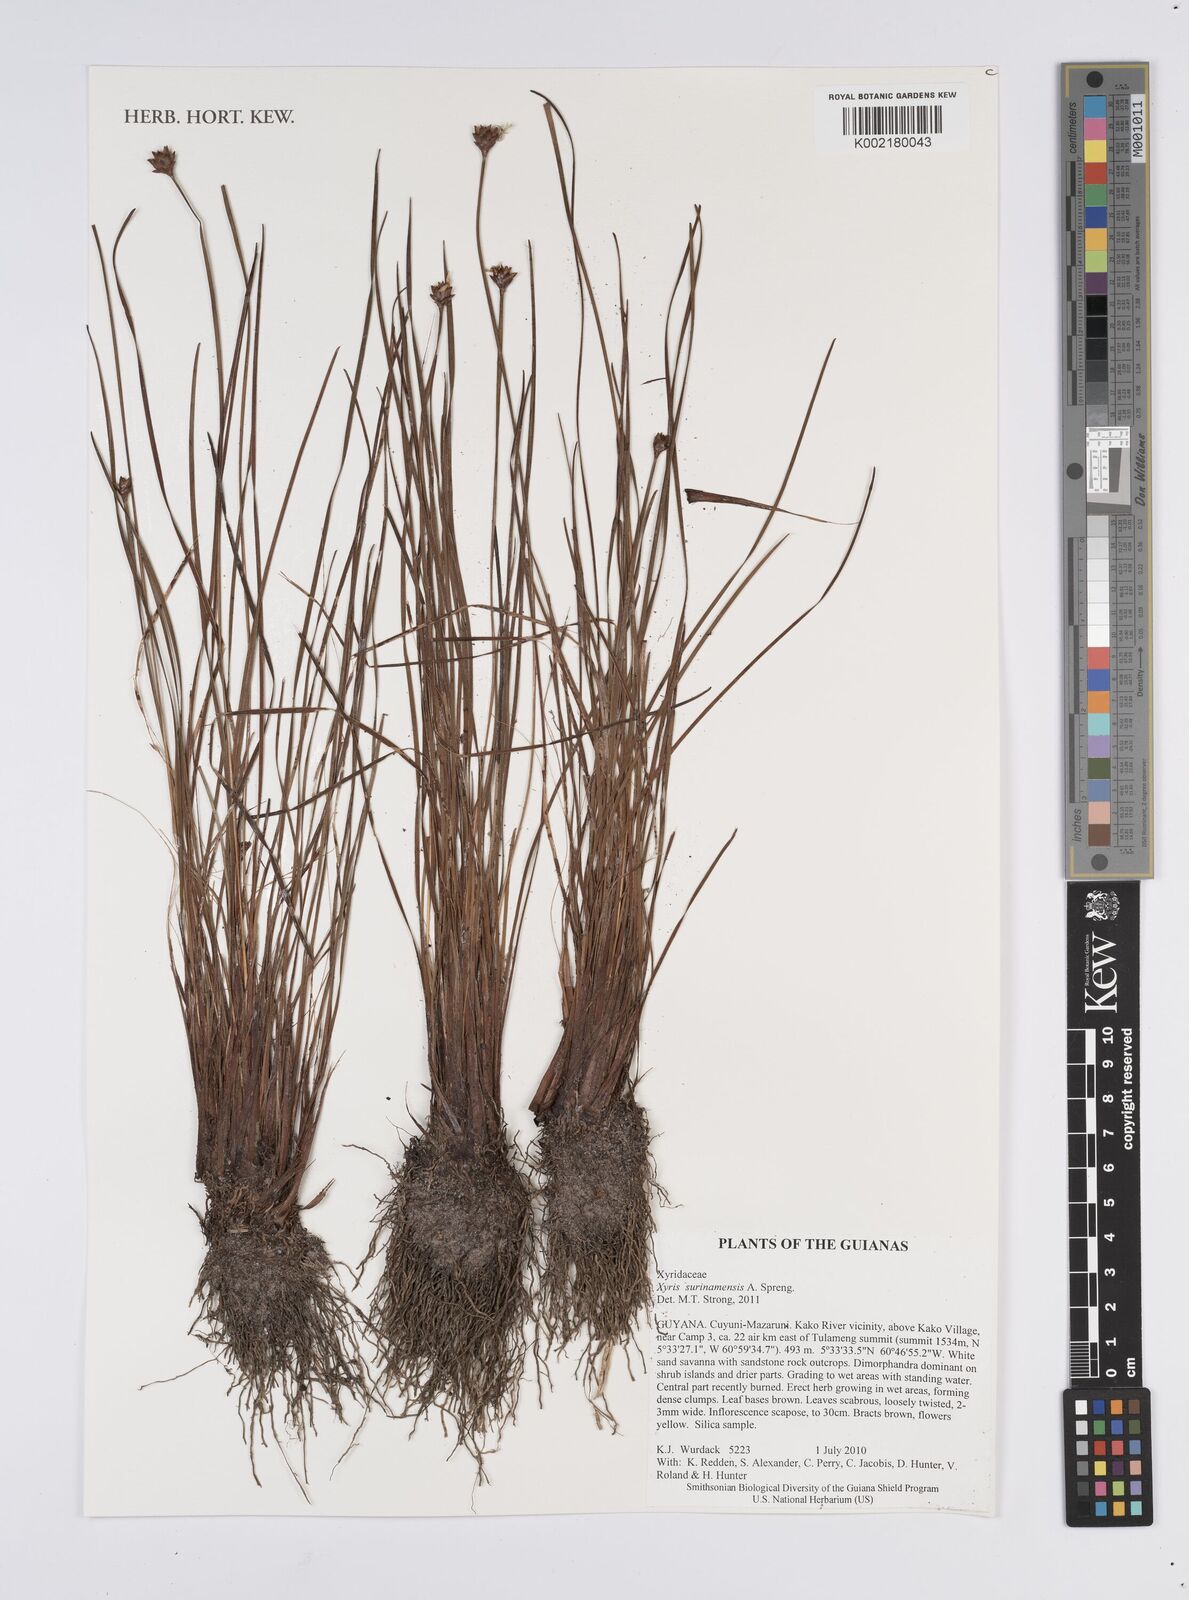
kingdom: Plantae
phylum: Tracheophyta
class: Liliopsida
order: Poales
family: Xyridaceae
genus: Xyris
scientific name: Xyris surinamensis
